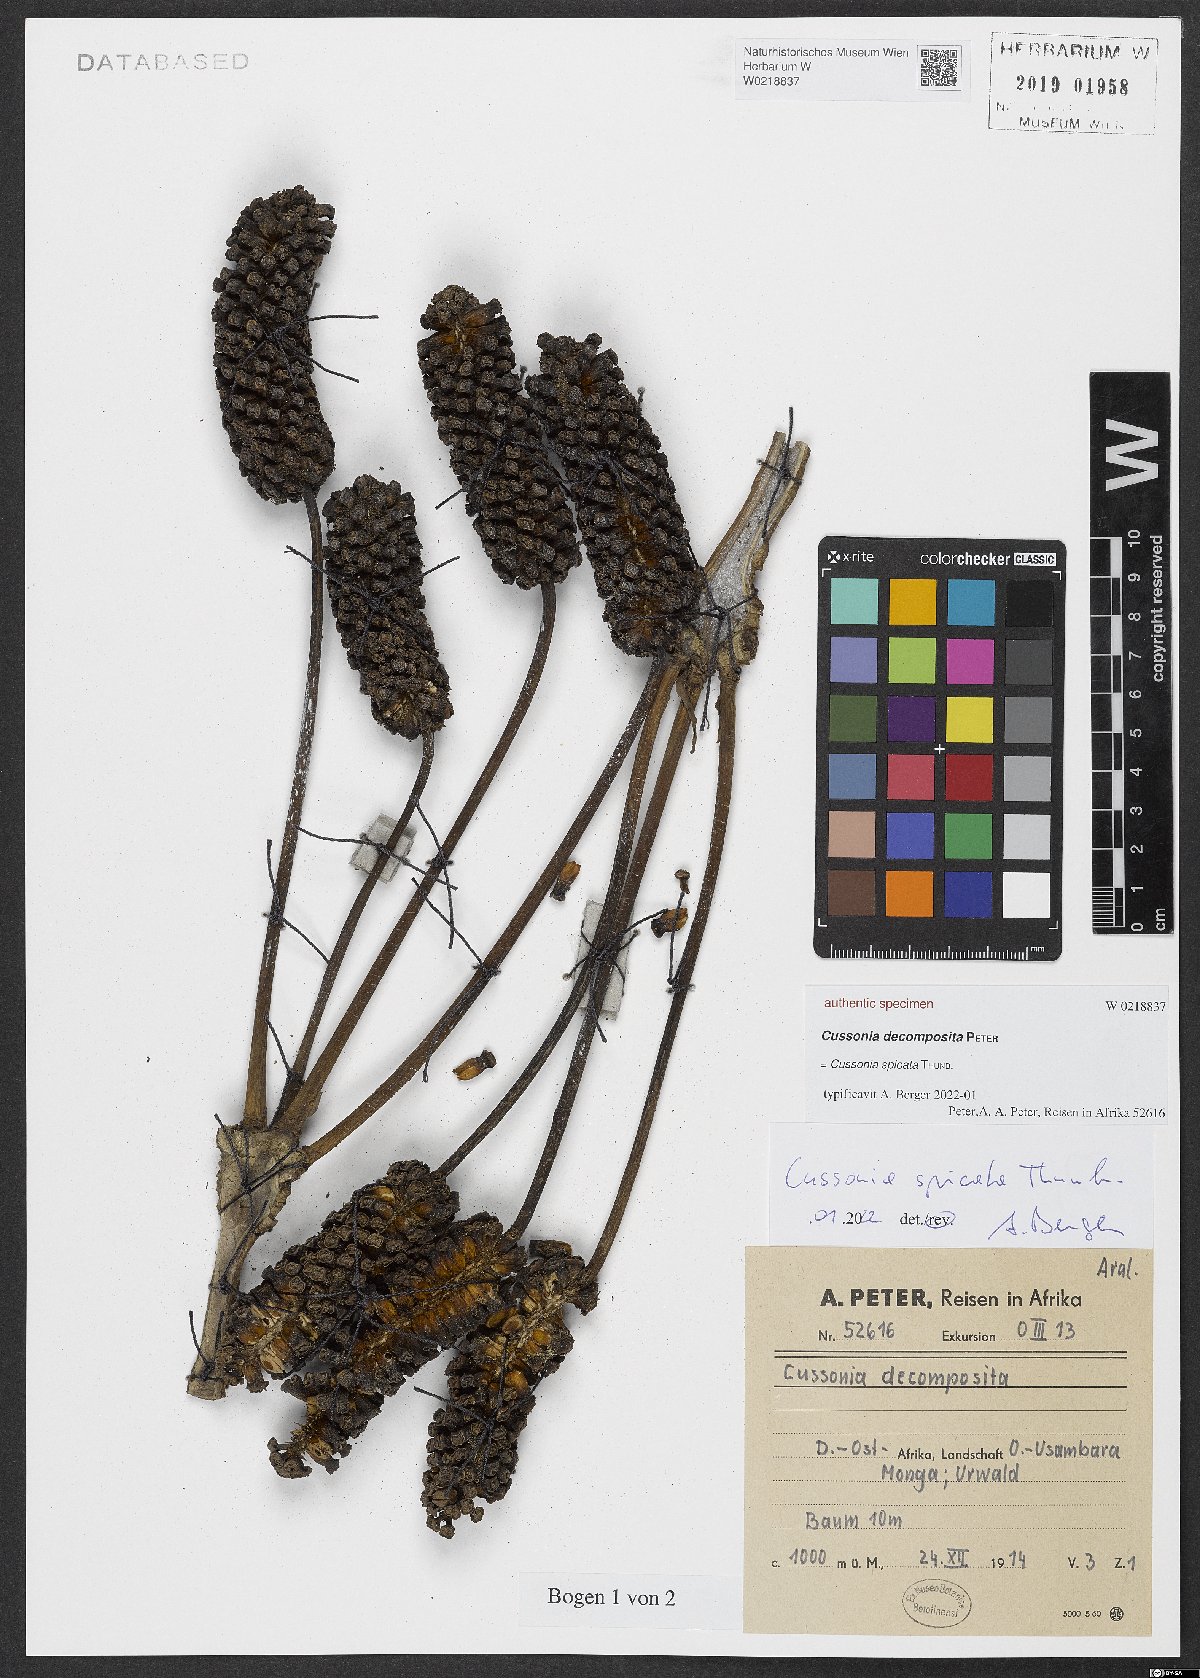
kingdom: Plantae
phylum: Tracheophyta
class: Magnoliopsida
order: Apiales
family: Araliaceae
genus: Cussonia
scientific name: Cussonia
